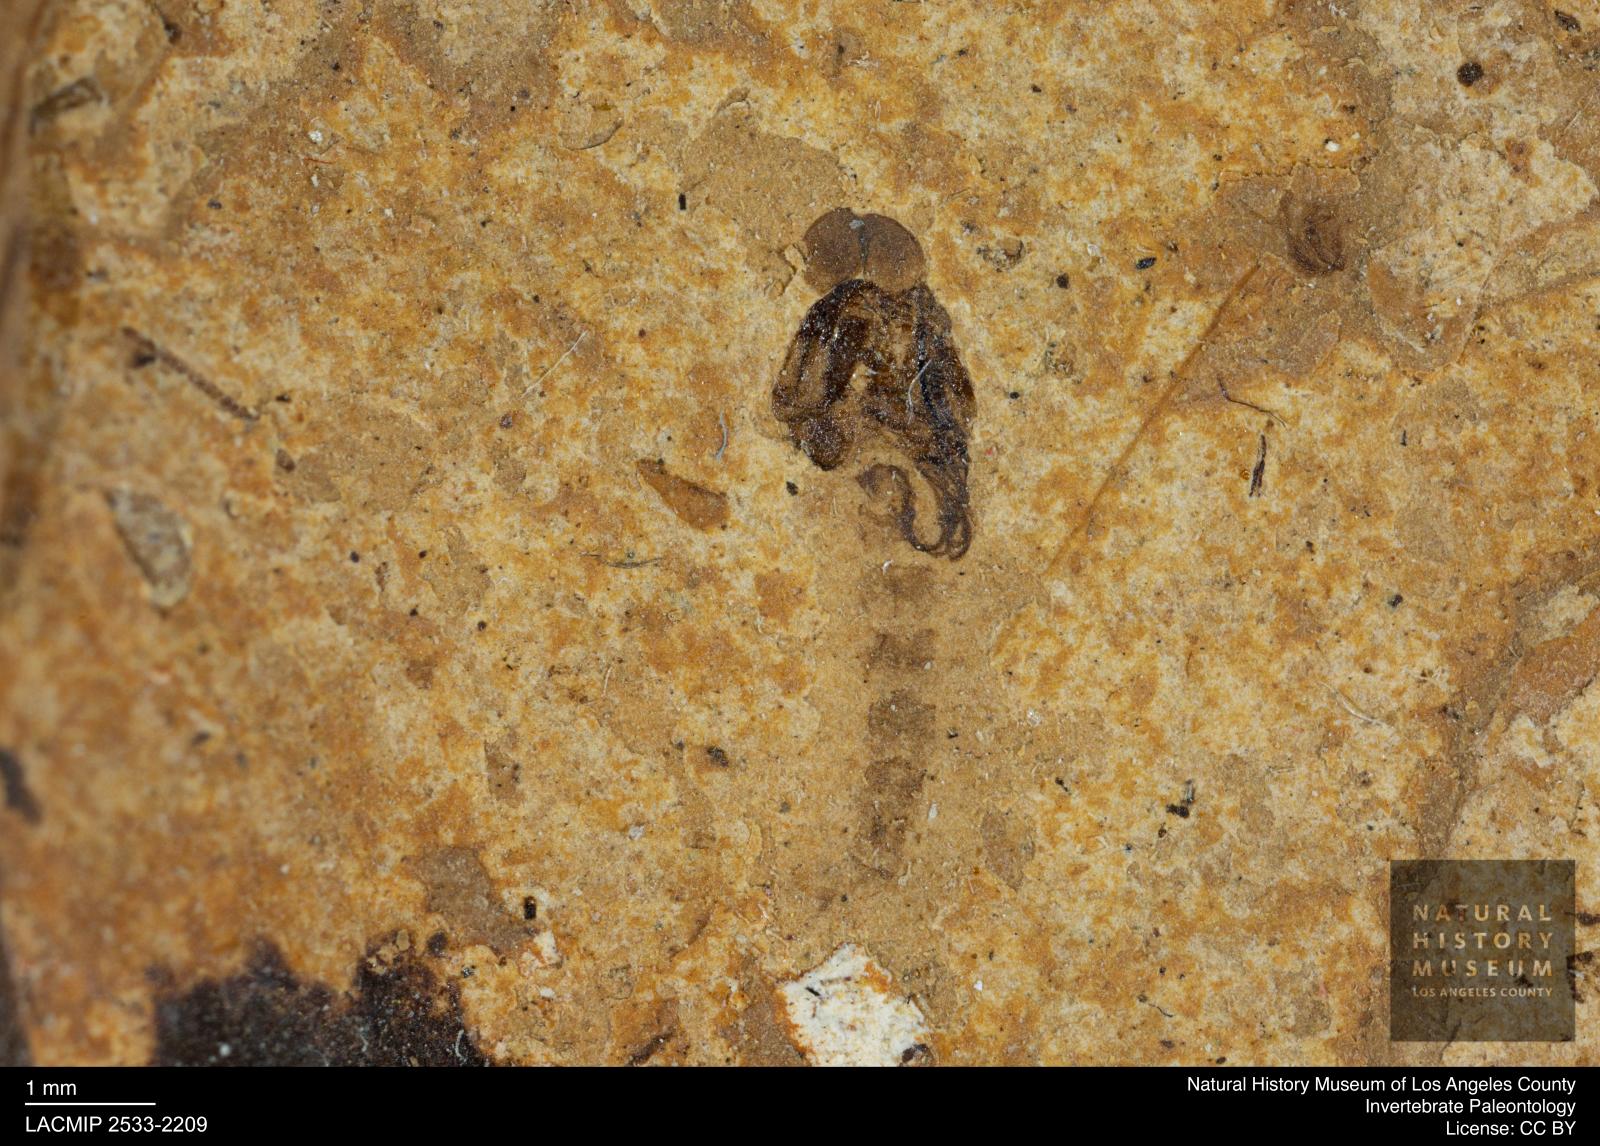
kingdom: Animalia
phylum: Arthropoda
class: Insecta
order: Diptera
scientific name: Diptera
